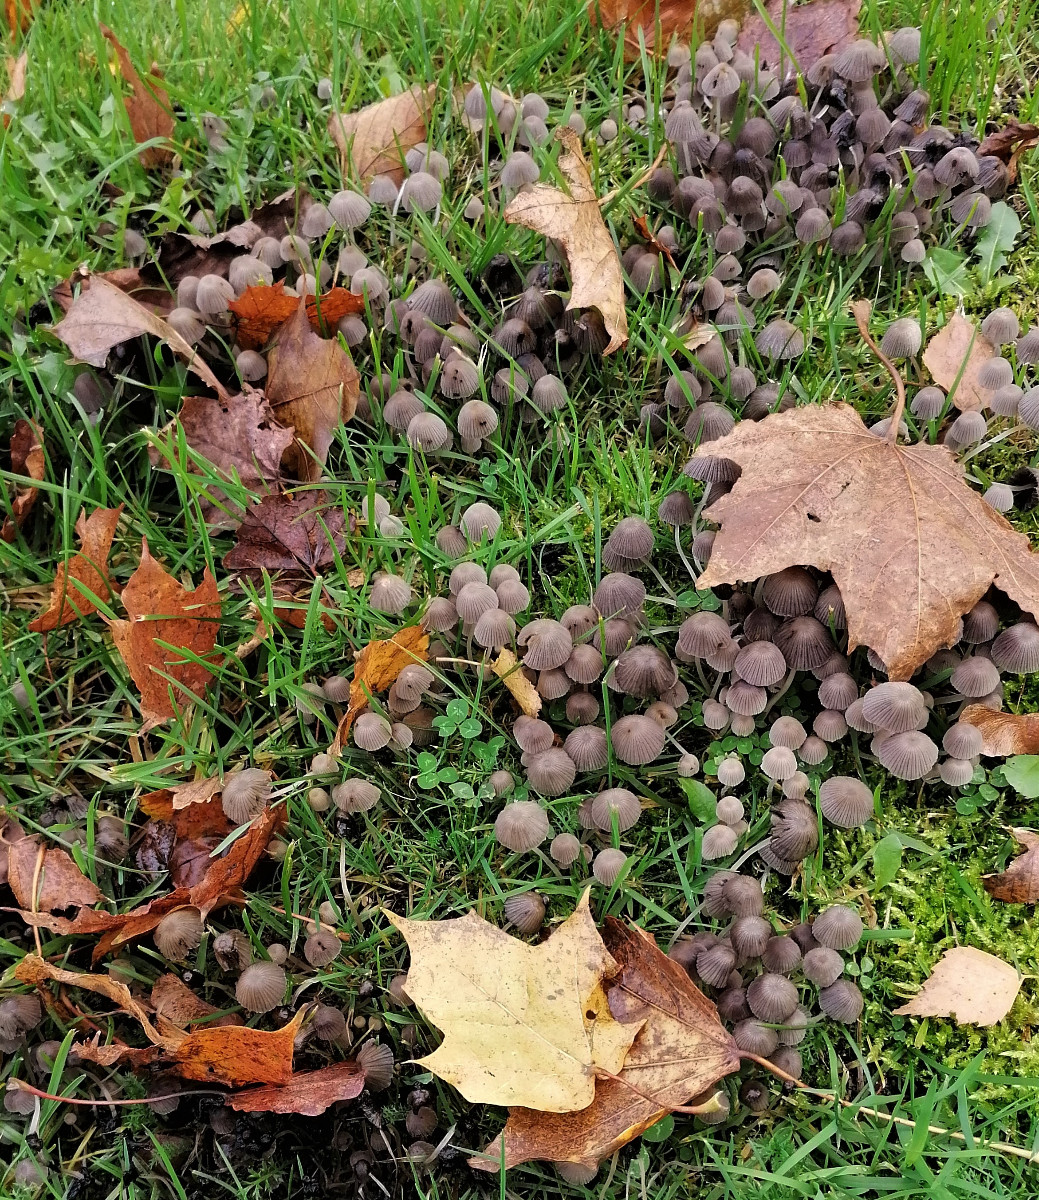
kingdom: Fungi
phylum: Basidiomycota
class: Agaricomycetes
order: Agaricales
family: Psathyrellaceae
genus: Coprinellus
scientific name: Coprinellus disseminatus
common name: bredsået blækhat
